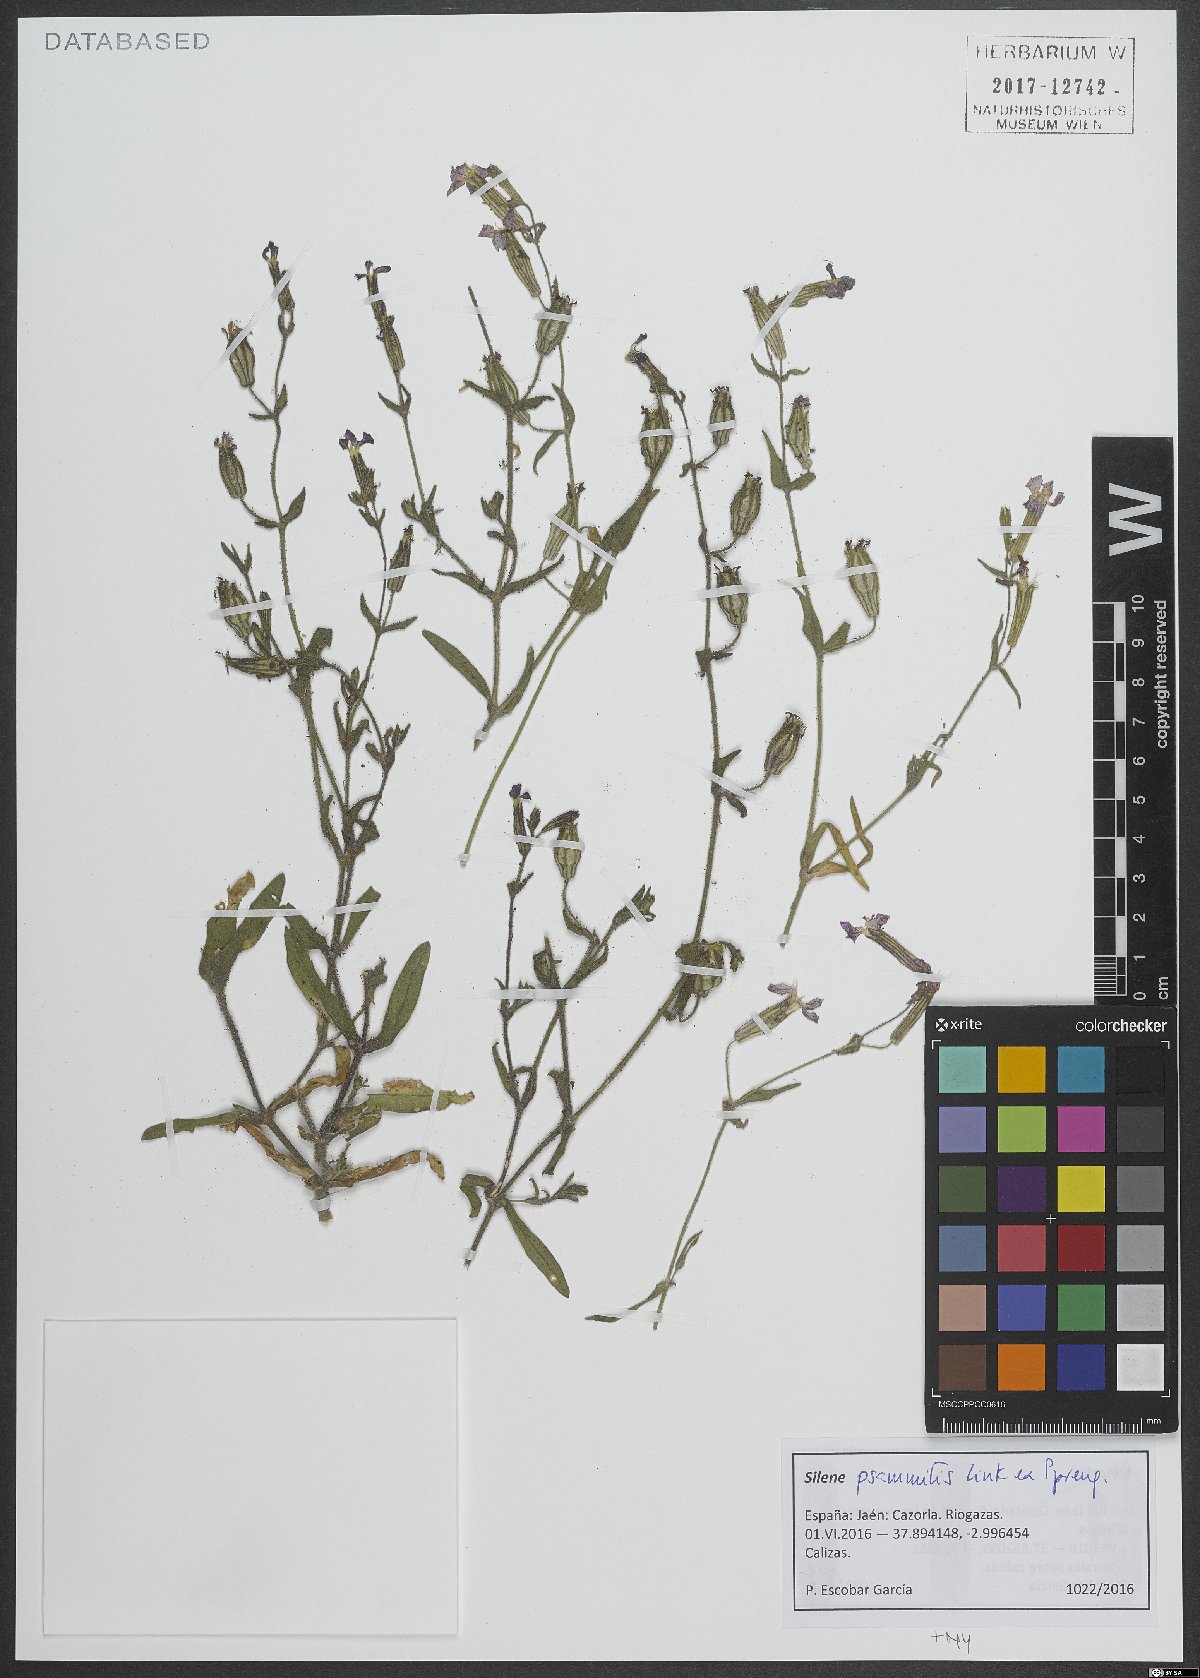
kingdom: Plantae
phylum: Tracheophyta
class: Magnoliopsida
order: Caryophyllales
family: Caryophyllaceae
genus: Silene
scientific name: Silene psammitis
